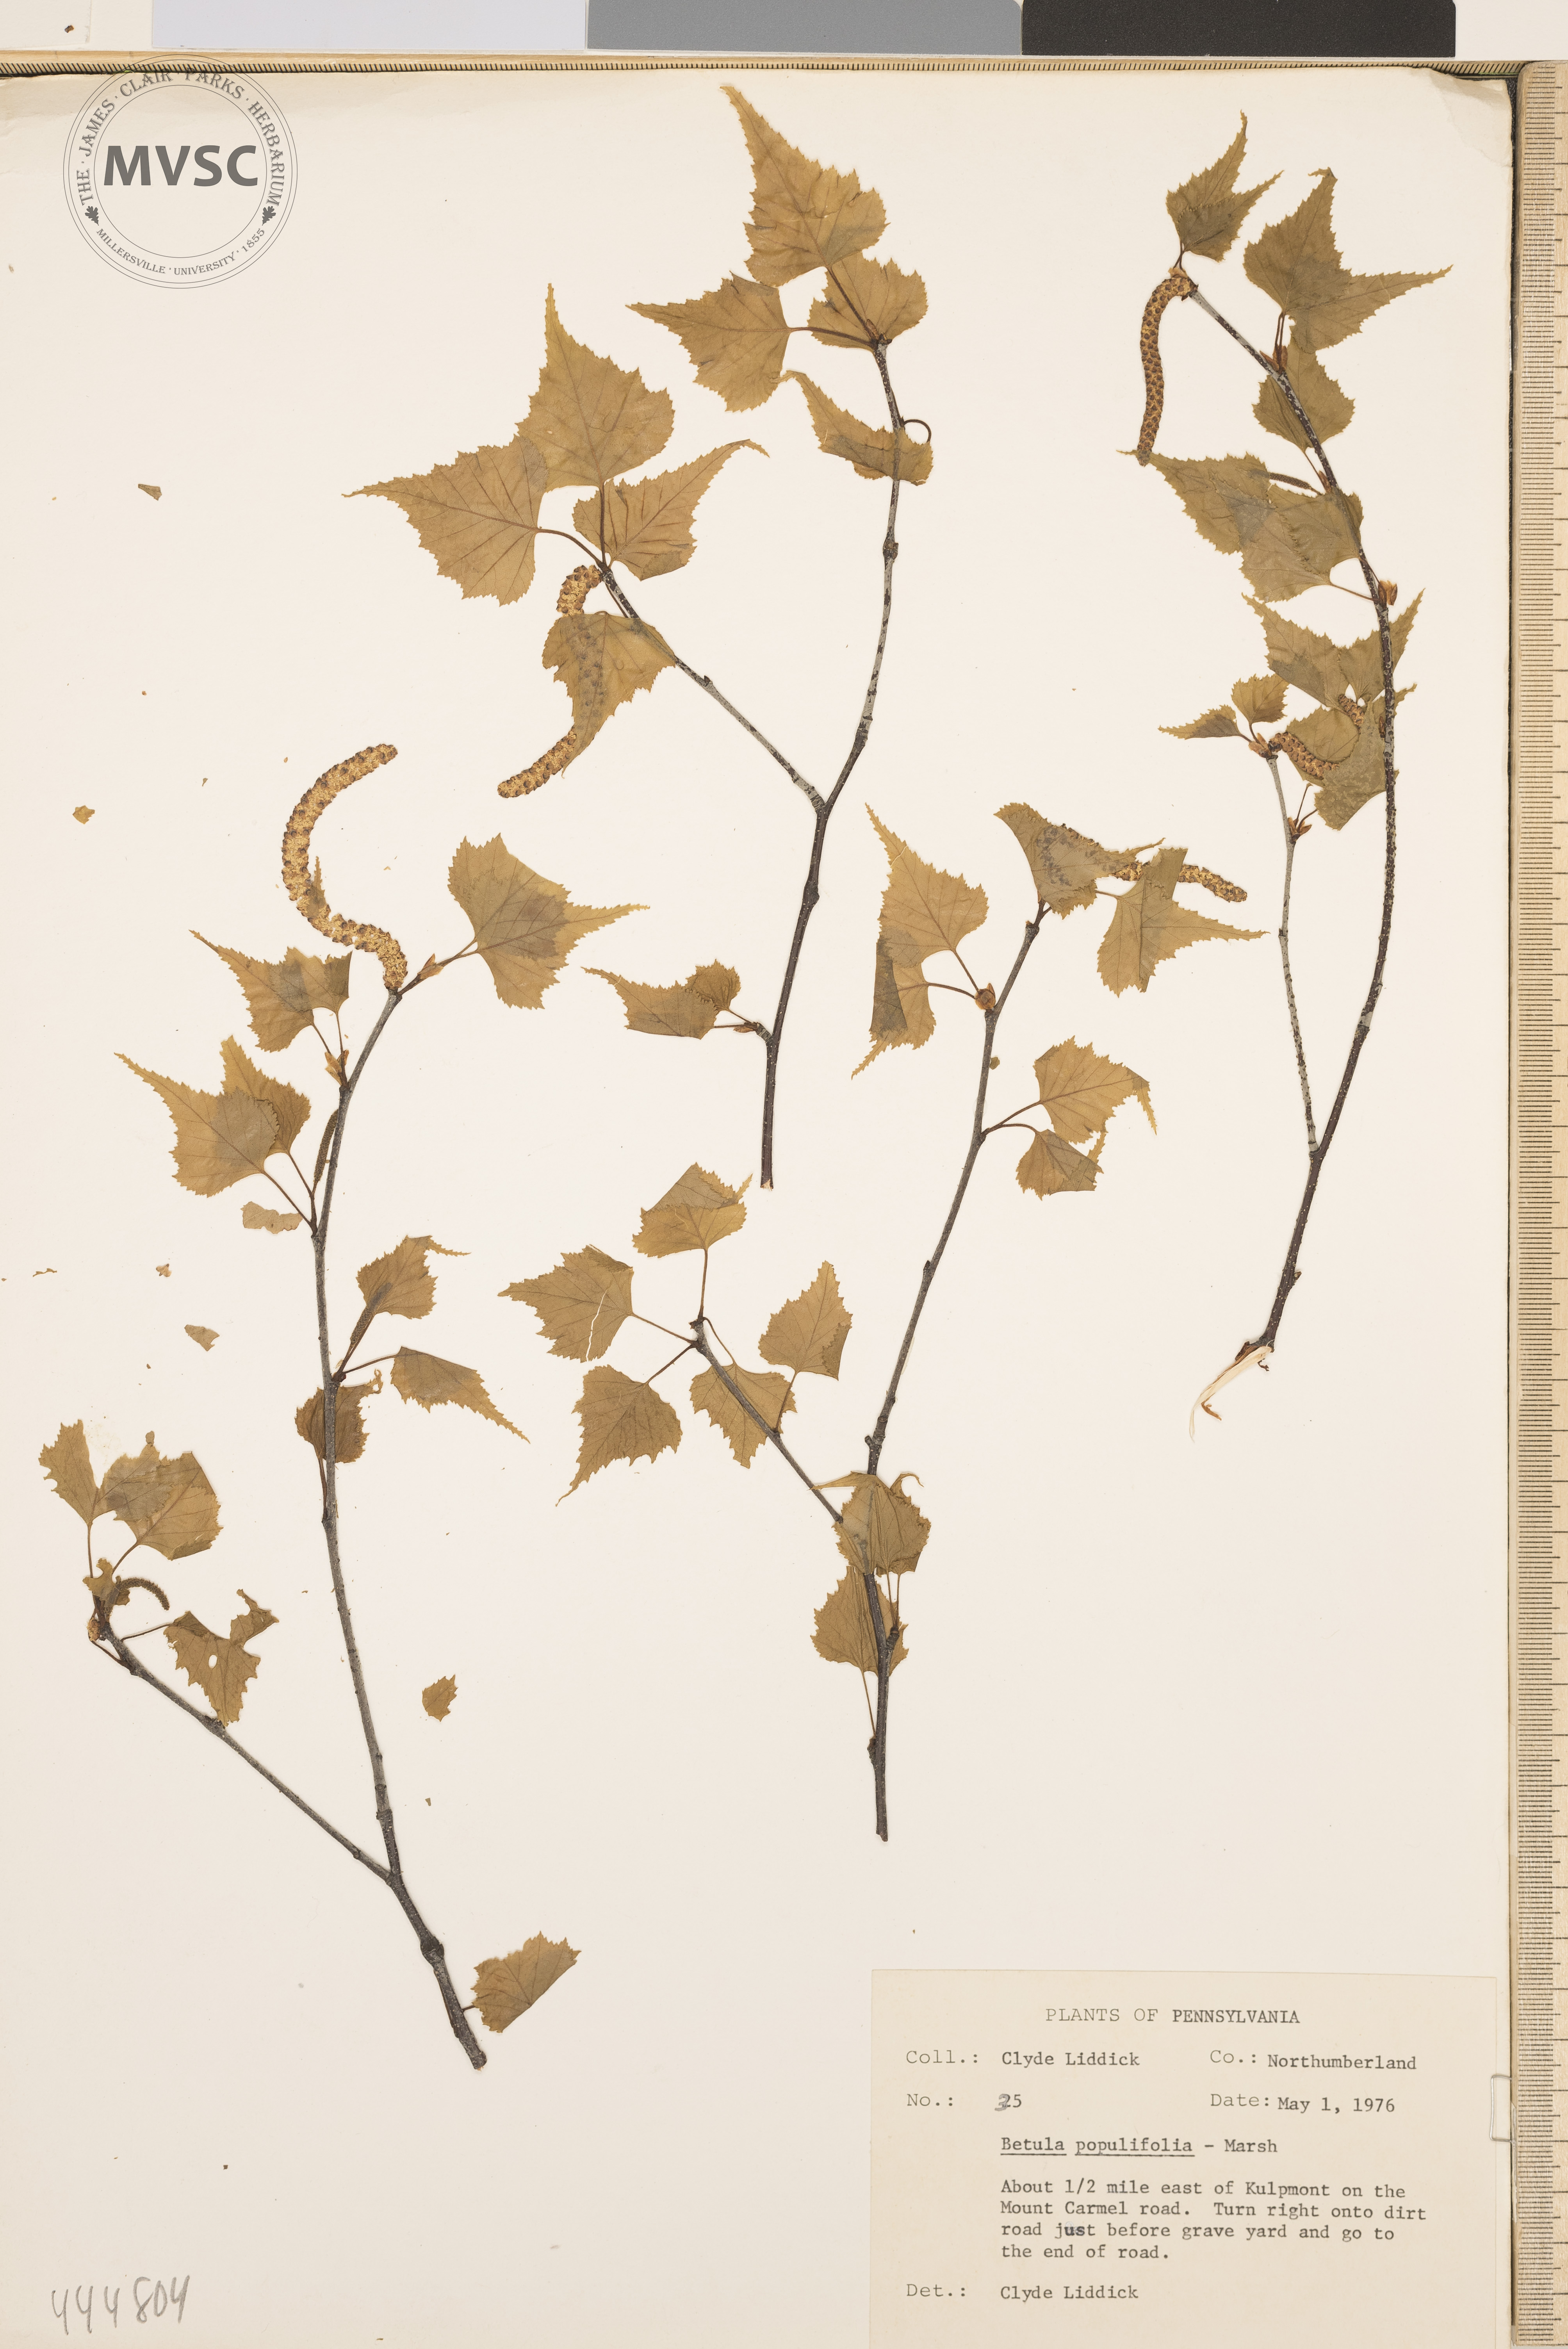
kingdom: Plantae
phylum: Tracheophyta
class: Magnoliopsida
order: Fagales
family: Betulaceae
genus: Betula
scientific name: Betula populifolia
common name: Fire birch
